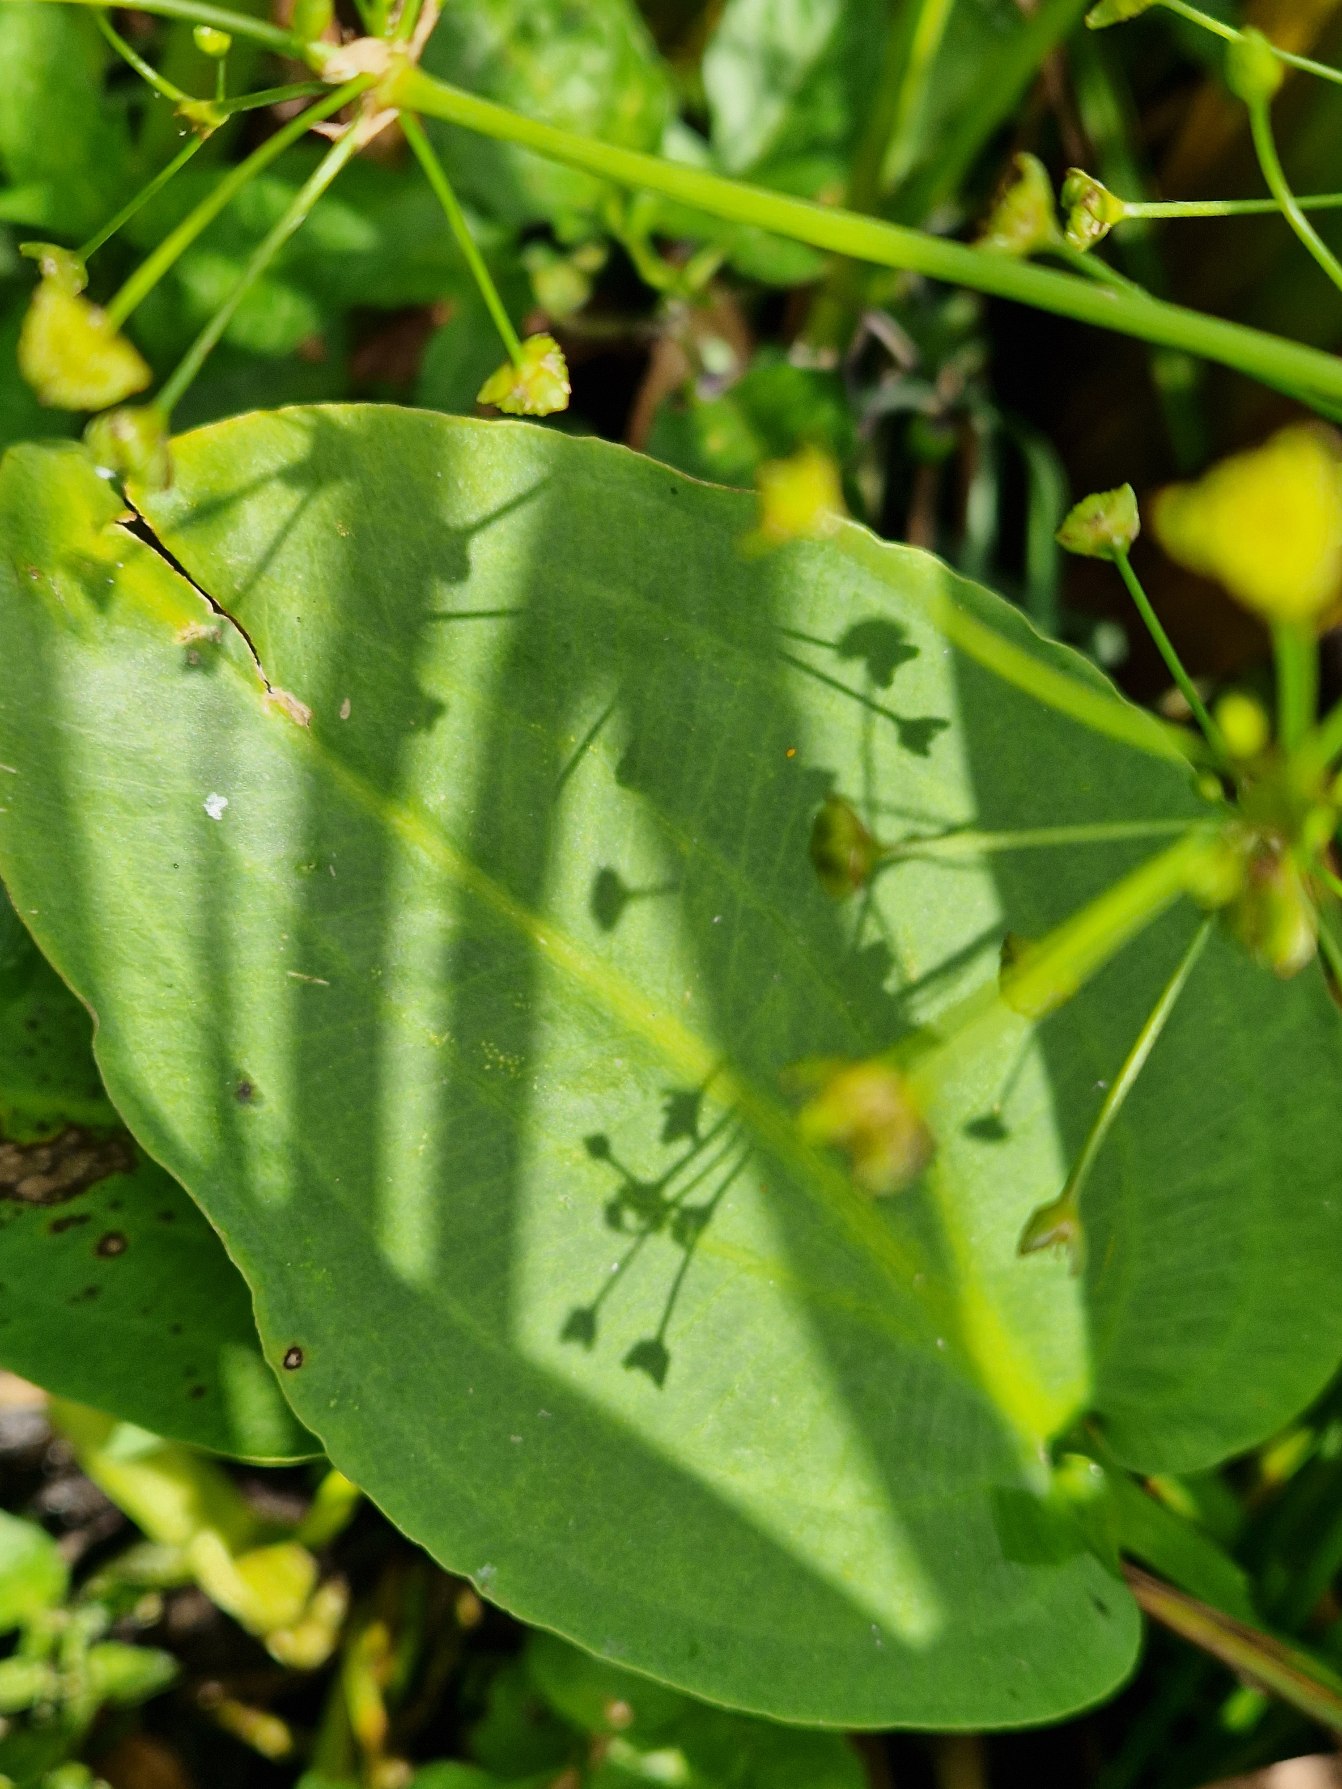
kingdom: Plantae
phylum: Tracheophyta
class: Liliopsida
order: Alismatales
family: Alismataceae
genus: Alisma
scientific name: Alisma plantago-aquatica
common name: Vejbred-skeblad
